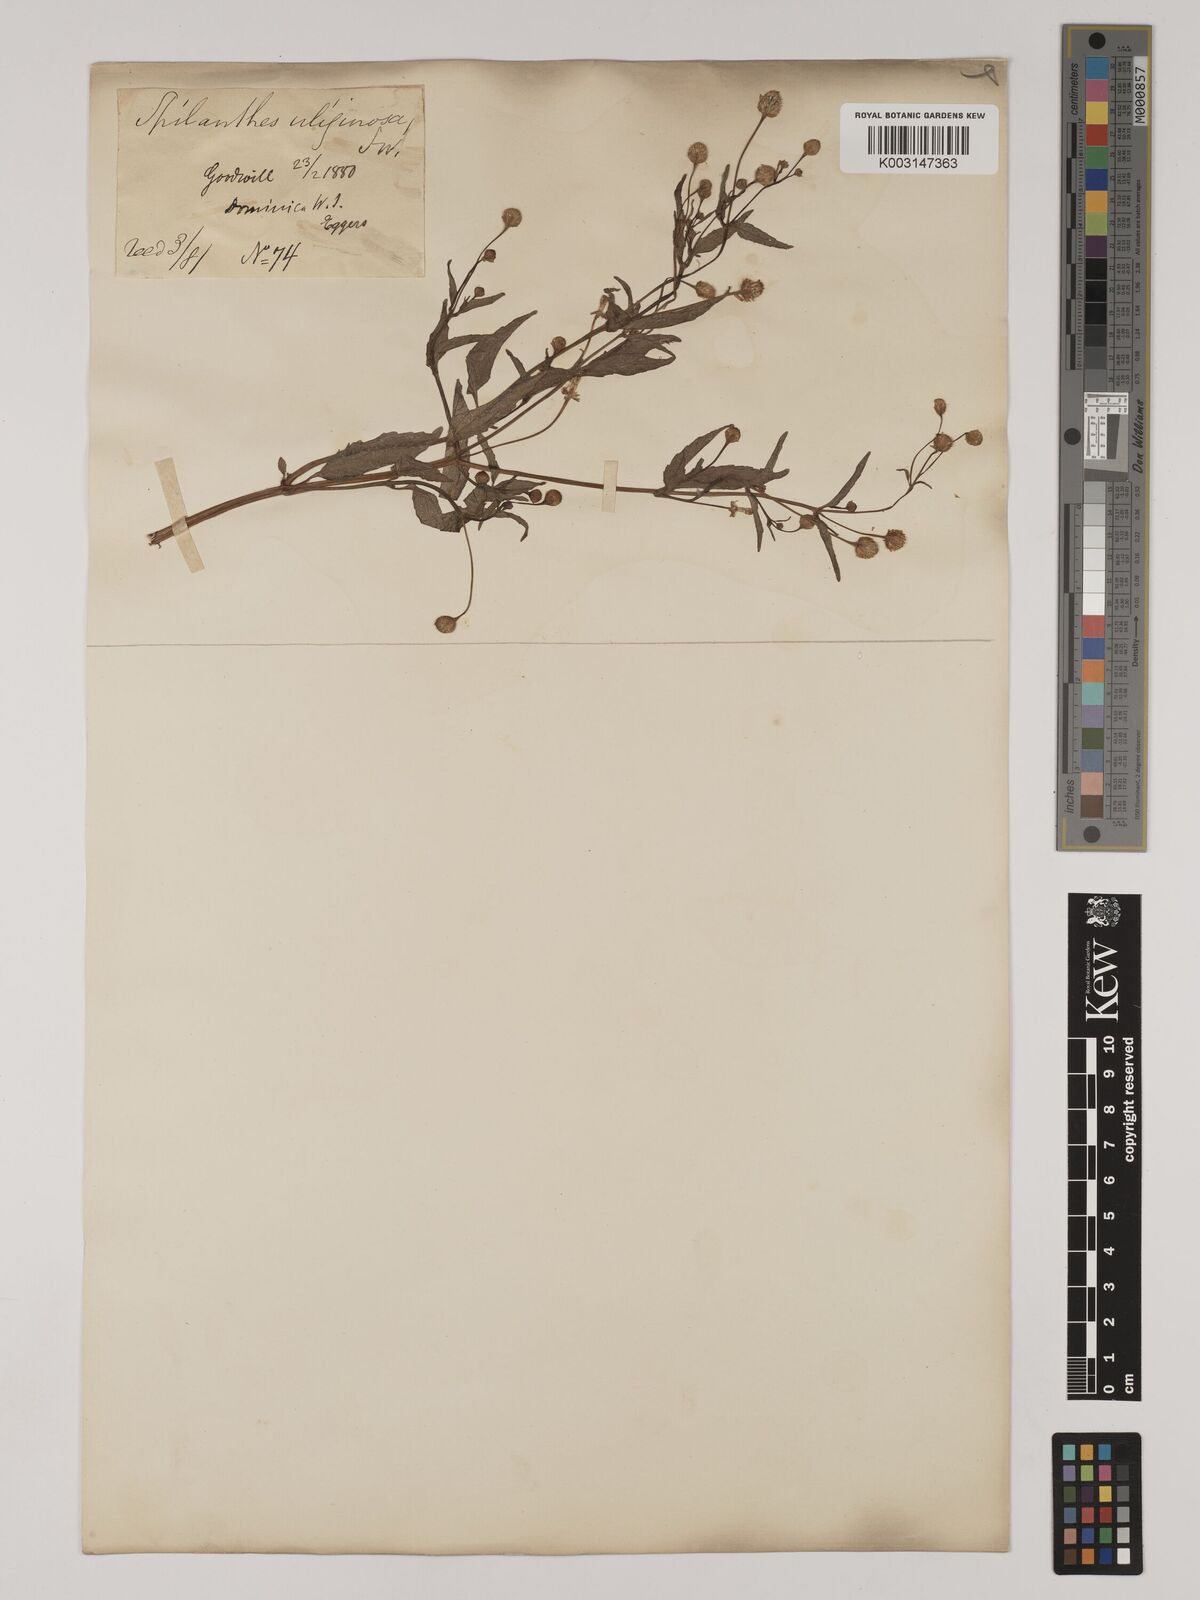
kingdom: Plantae
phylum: Tracheophyta
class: Magnoliopsida
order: Asterales
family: Asteraceae
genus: Acmella
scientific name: Acmella uliginosa
